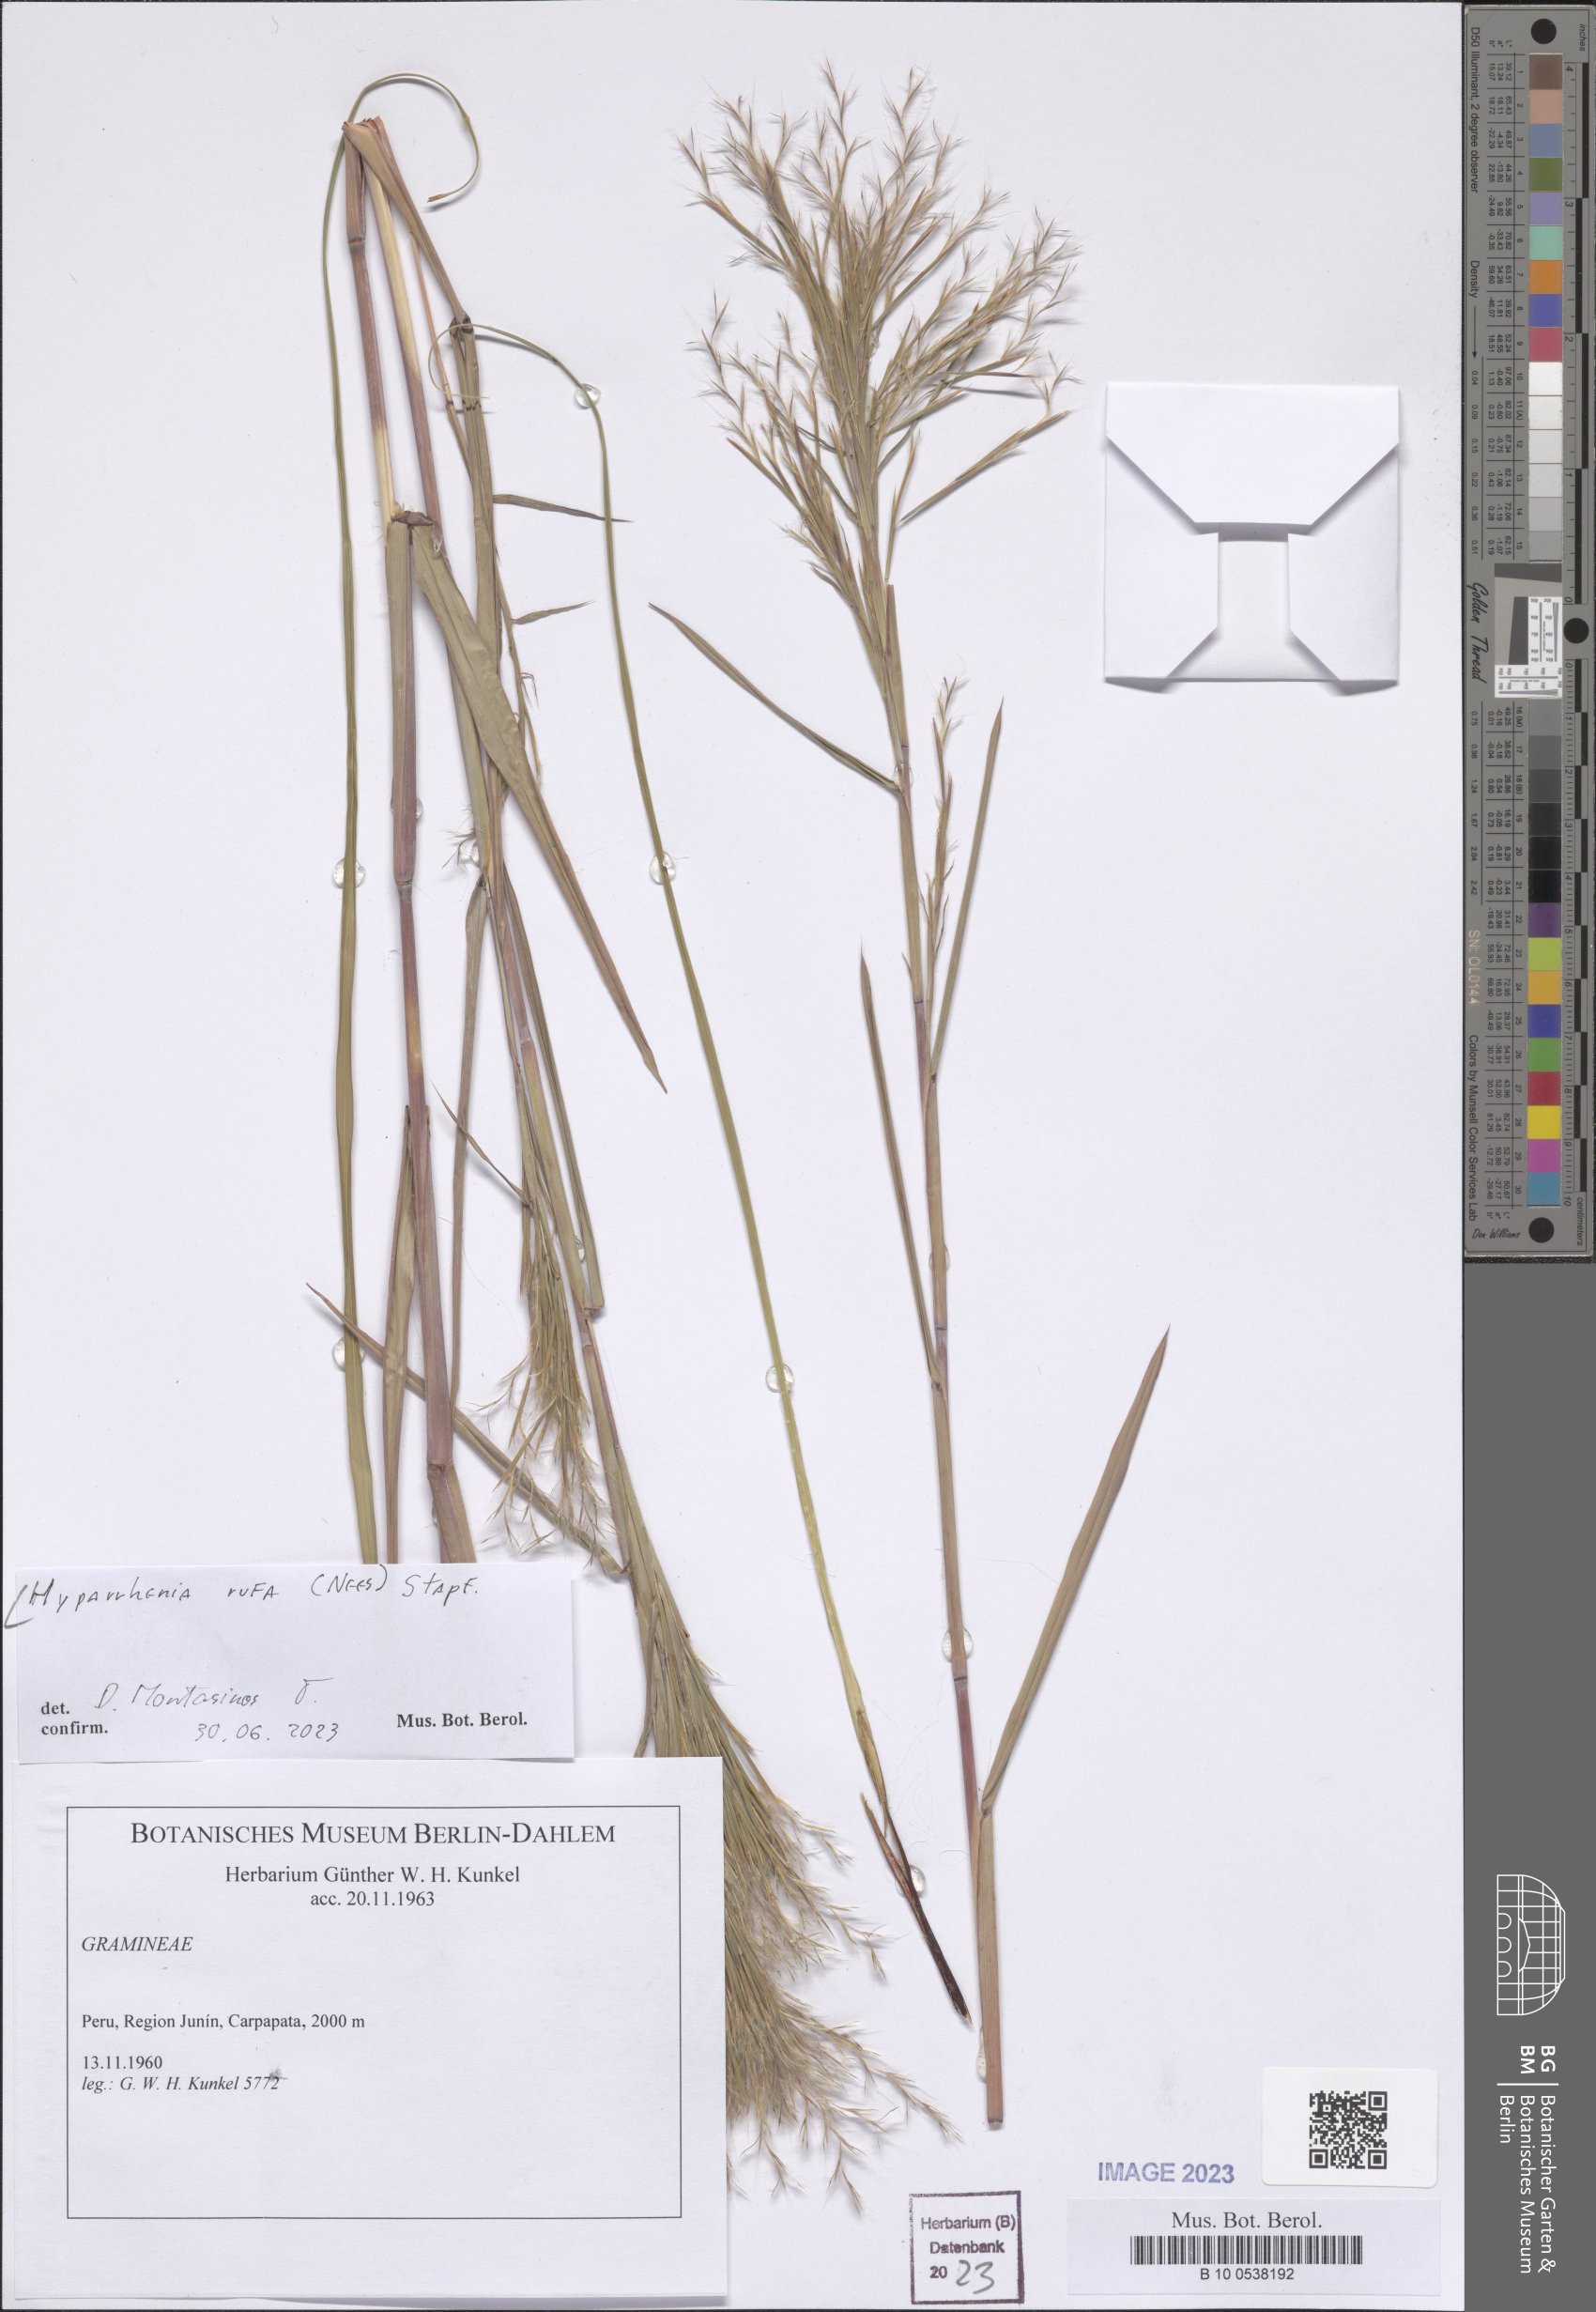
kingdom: Plantae
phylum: Tracheophyta
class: Liliopsida
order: Poales
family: Poaceae
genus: Hyparrhenia
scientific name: Hyparrhenia rufa
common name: Jaraguagrass
